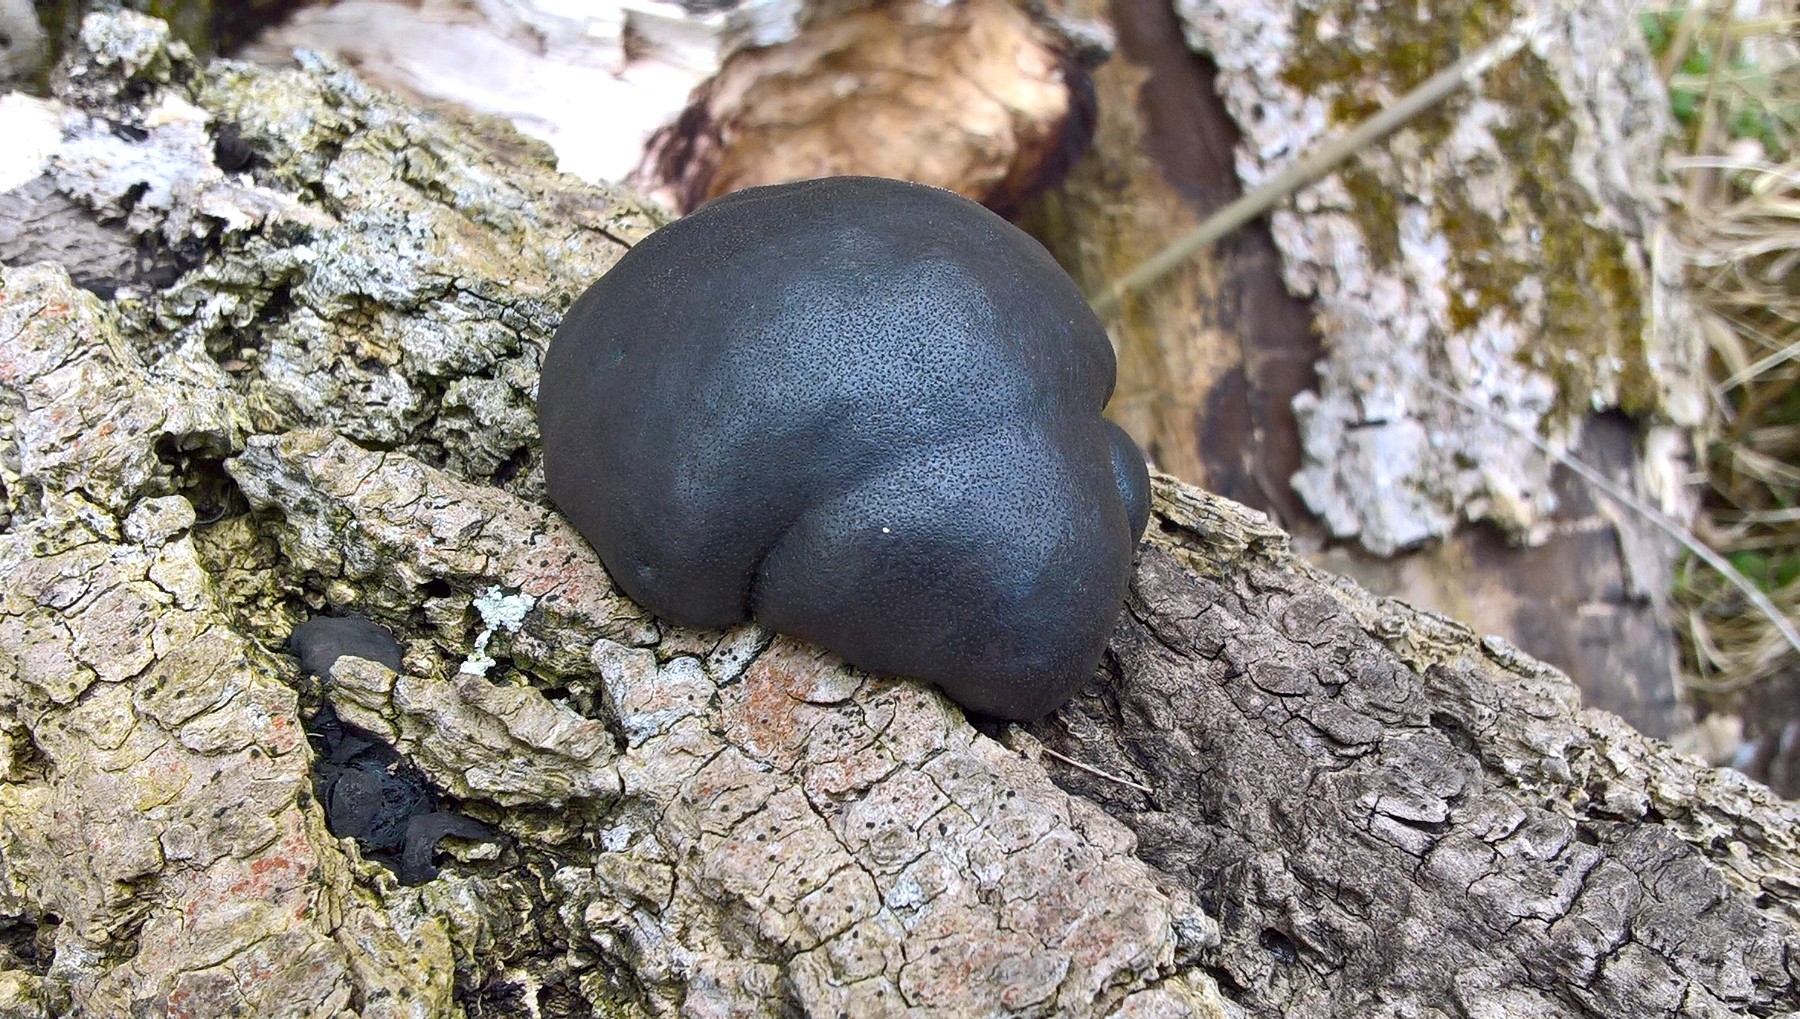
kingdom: Fungi
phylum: Ascomycota
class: Sordariomycetes
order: Xylariales
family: Hypoxylaceae
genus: Daldinia
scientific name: Daldinia concentrica
